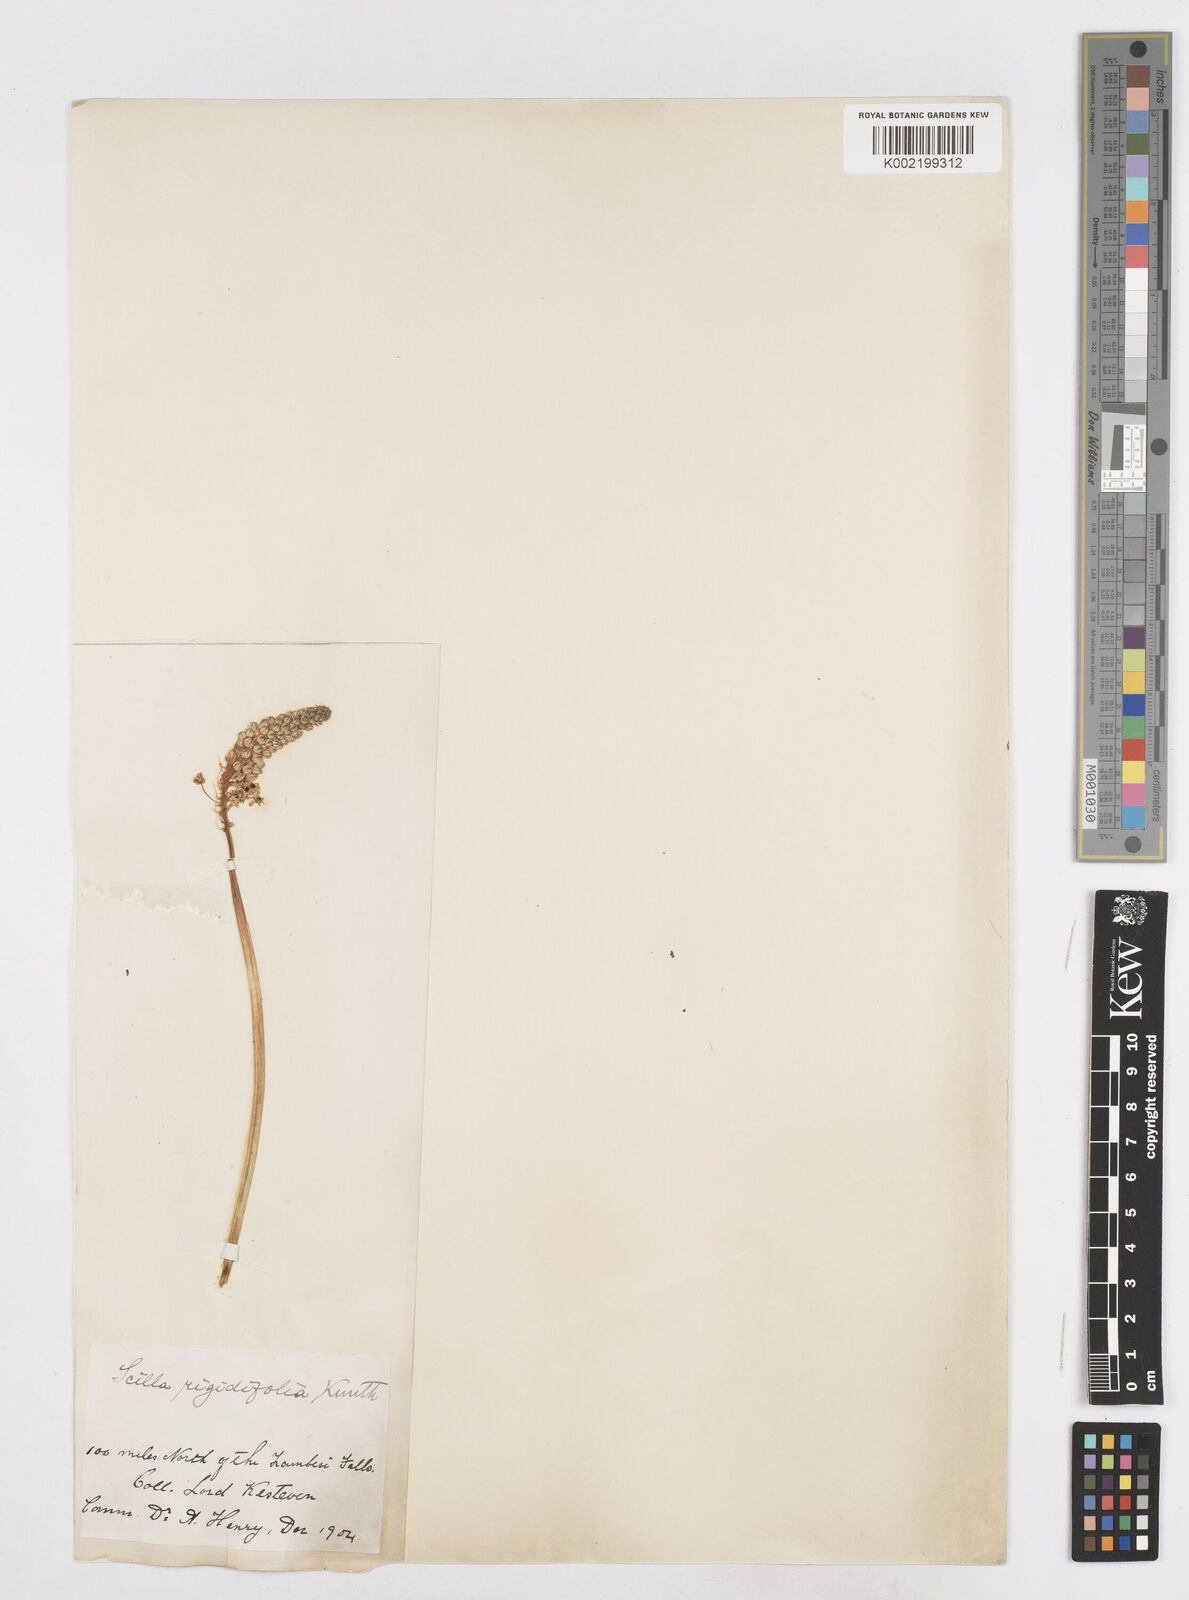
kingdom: Plantae
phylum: Tracheophyta
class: Liliopsida
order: Asparagales
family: Asparagaceae
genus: Schizocarphus
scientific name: Schizocarphus nervosus
